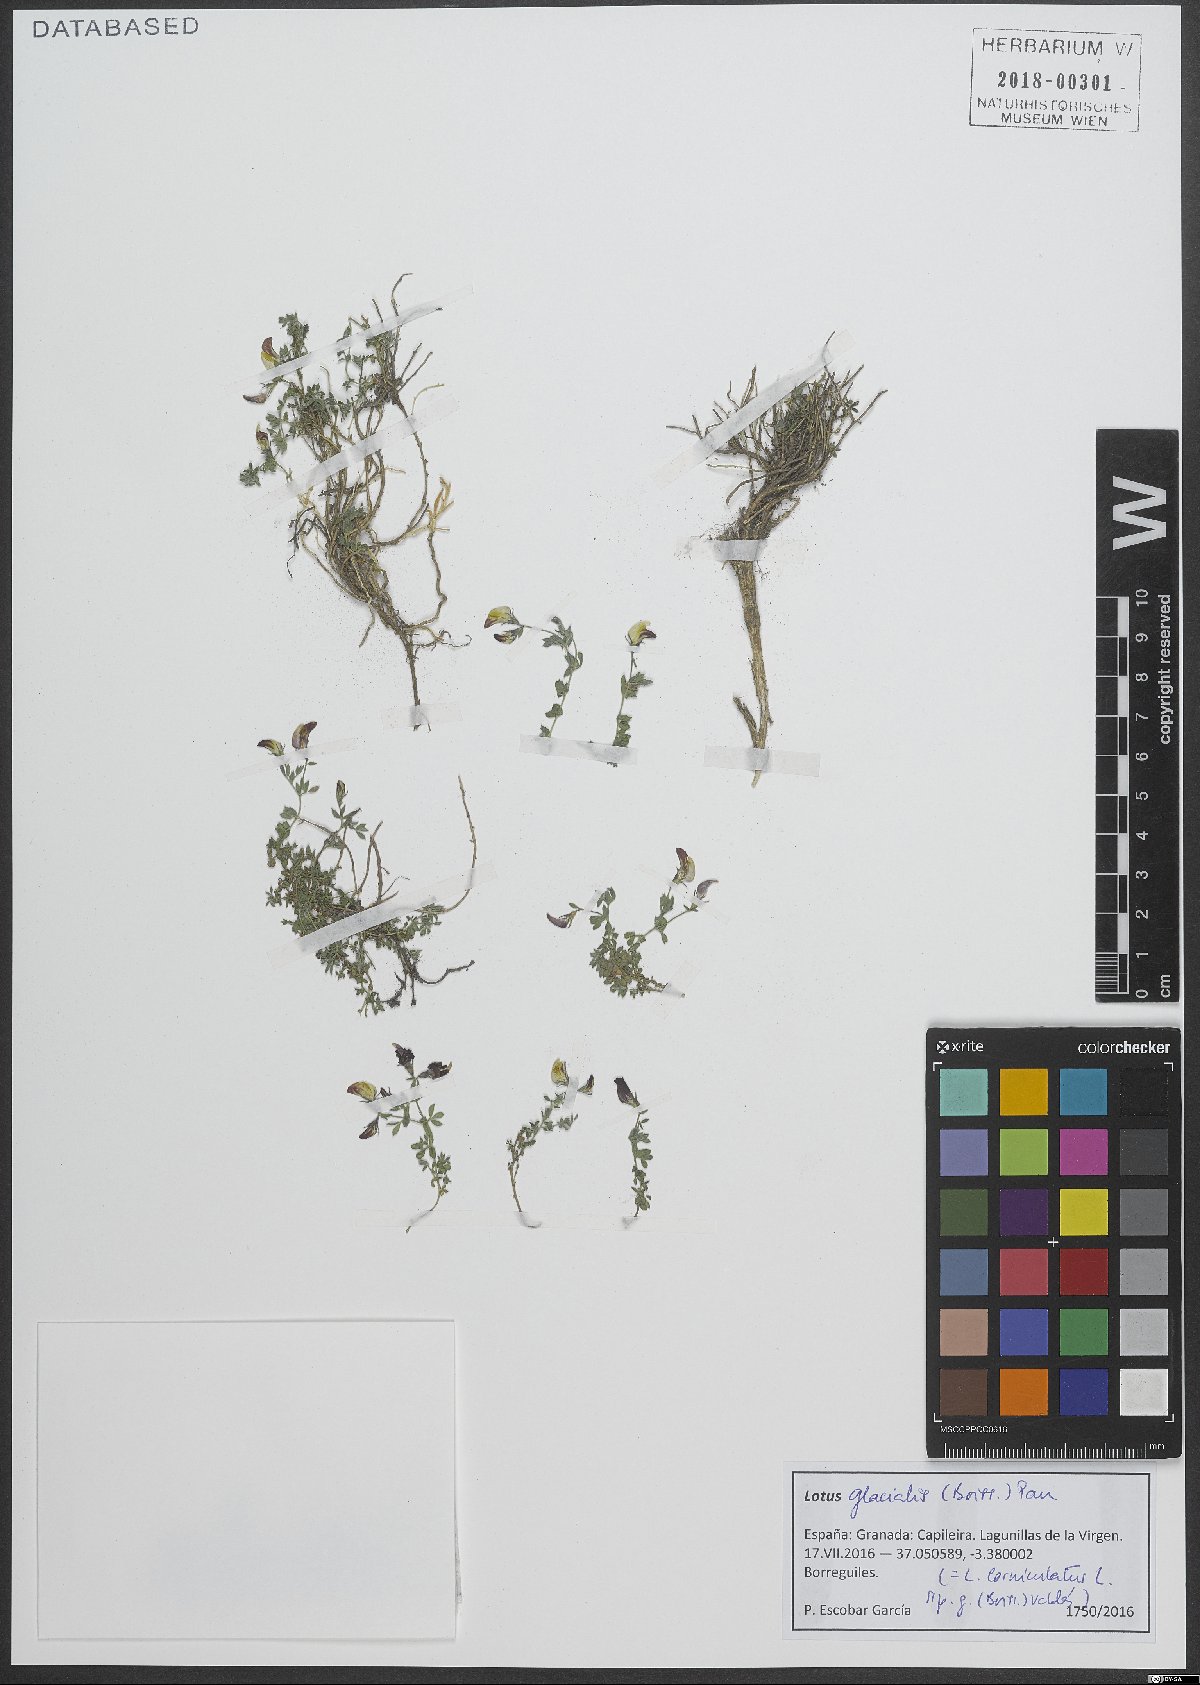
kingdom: Plantae
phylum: Tracheophyta
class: Magnoliopsida
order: Fabales
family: Fabaceae
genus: Lotus
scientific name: Lotus glacialis
